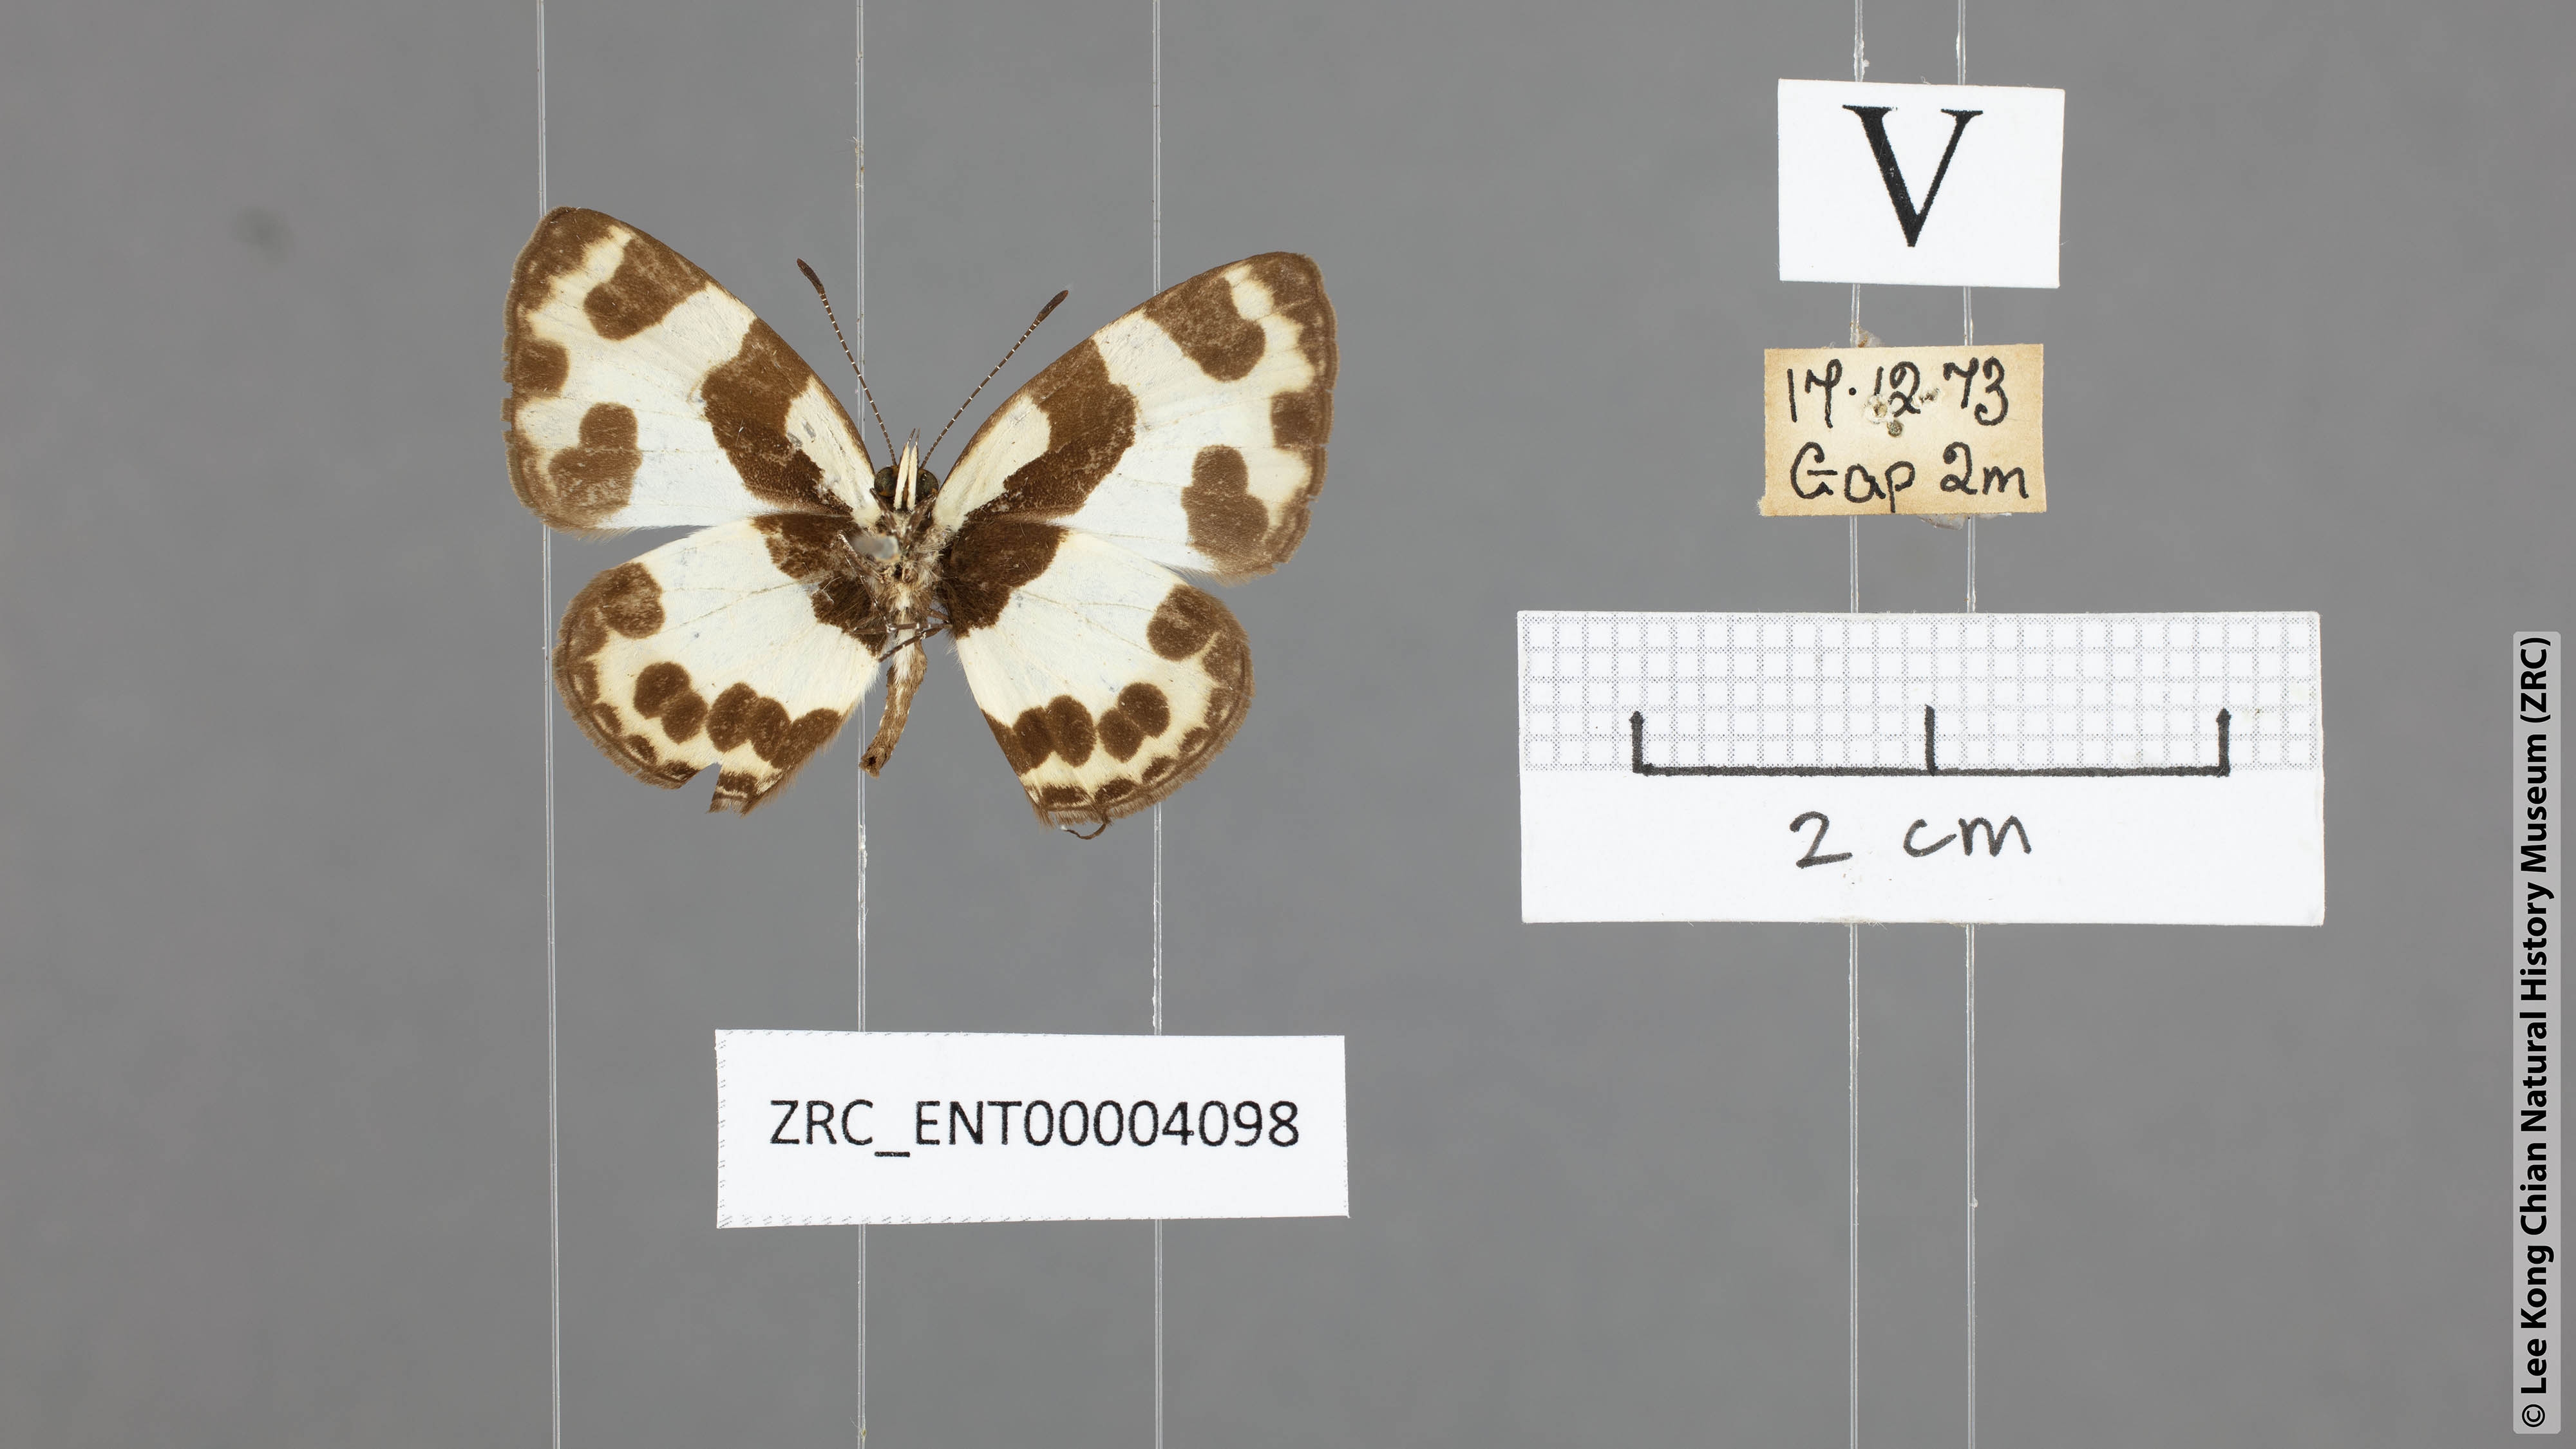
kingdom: Animalia
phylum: Arthropoda
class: Insecta
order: Lepidoptera
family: Lycaenidae
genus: Caleta
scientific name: Caleta elna
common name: Elbowed pierrot
